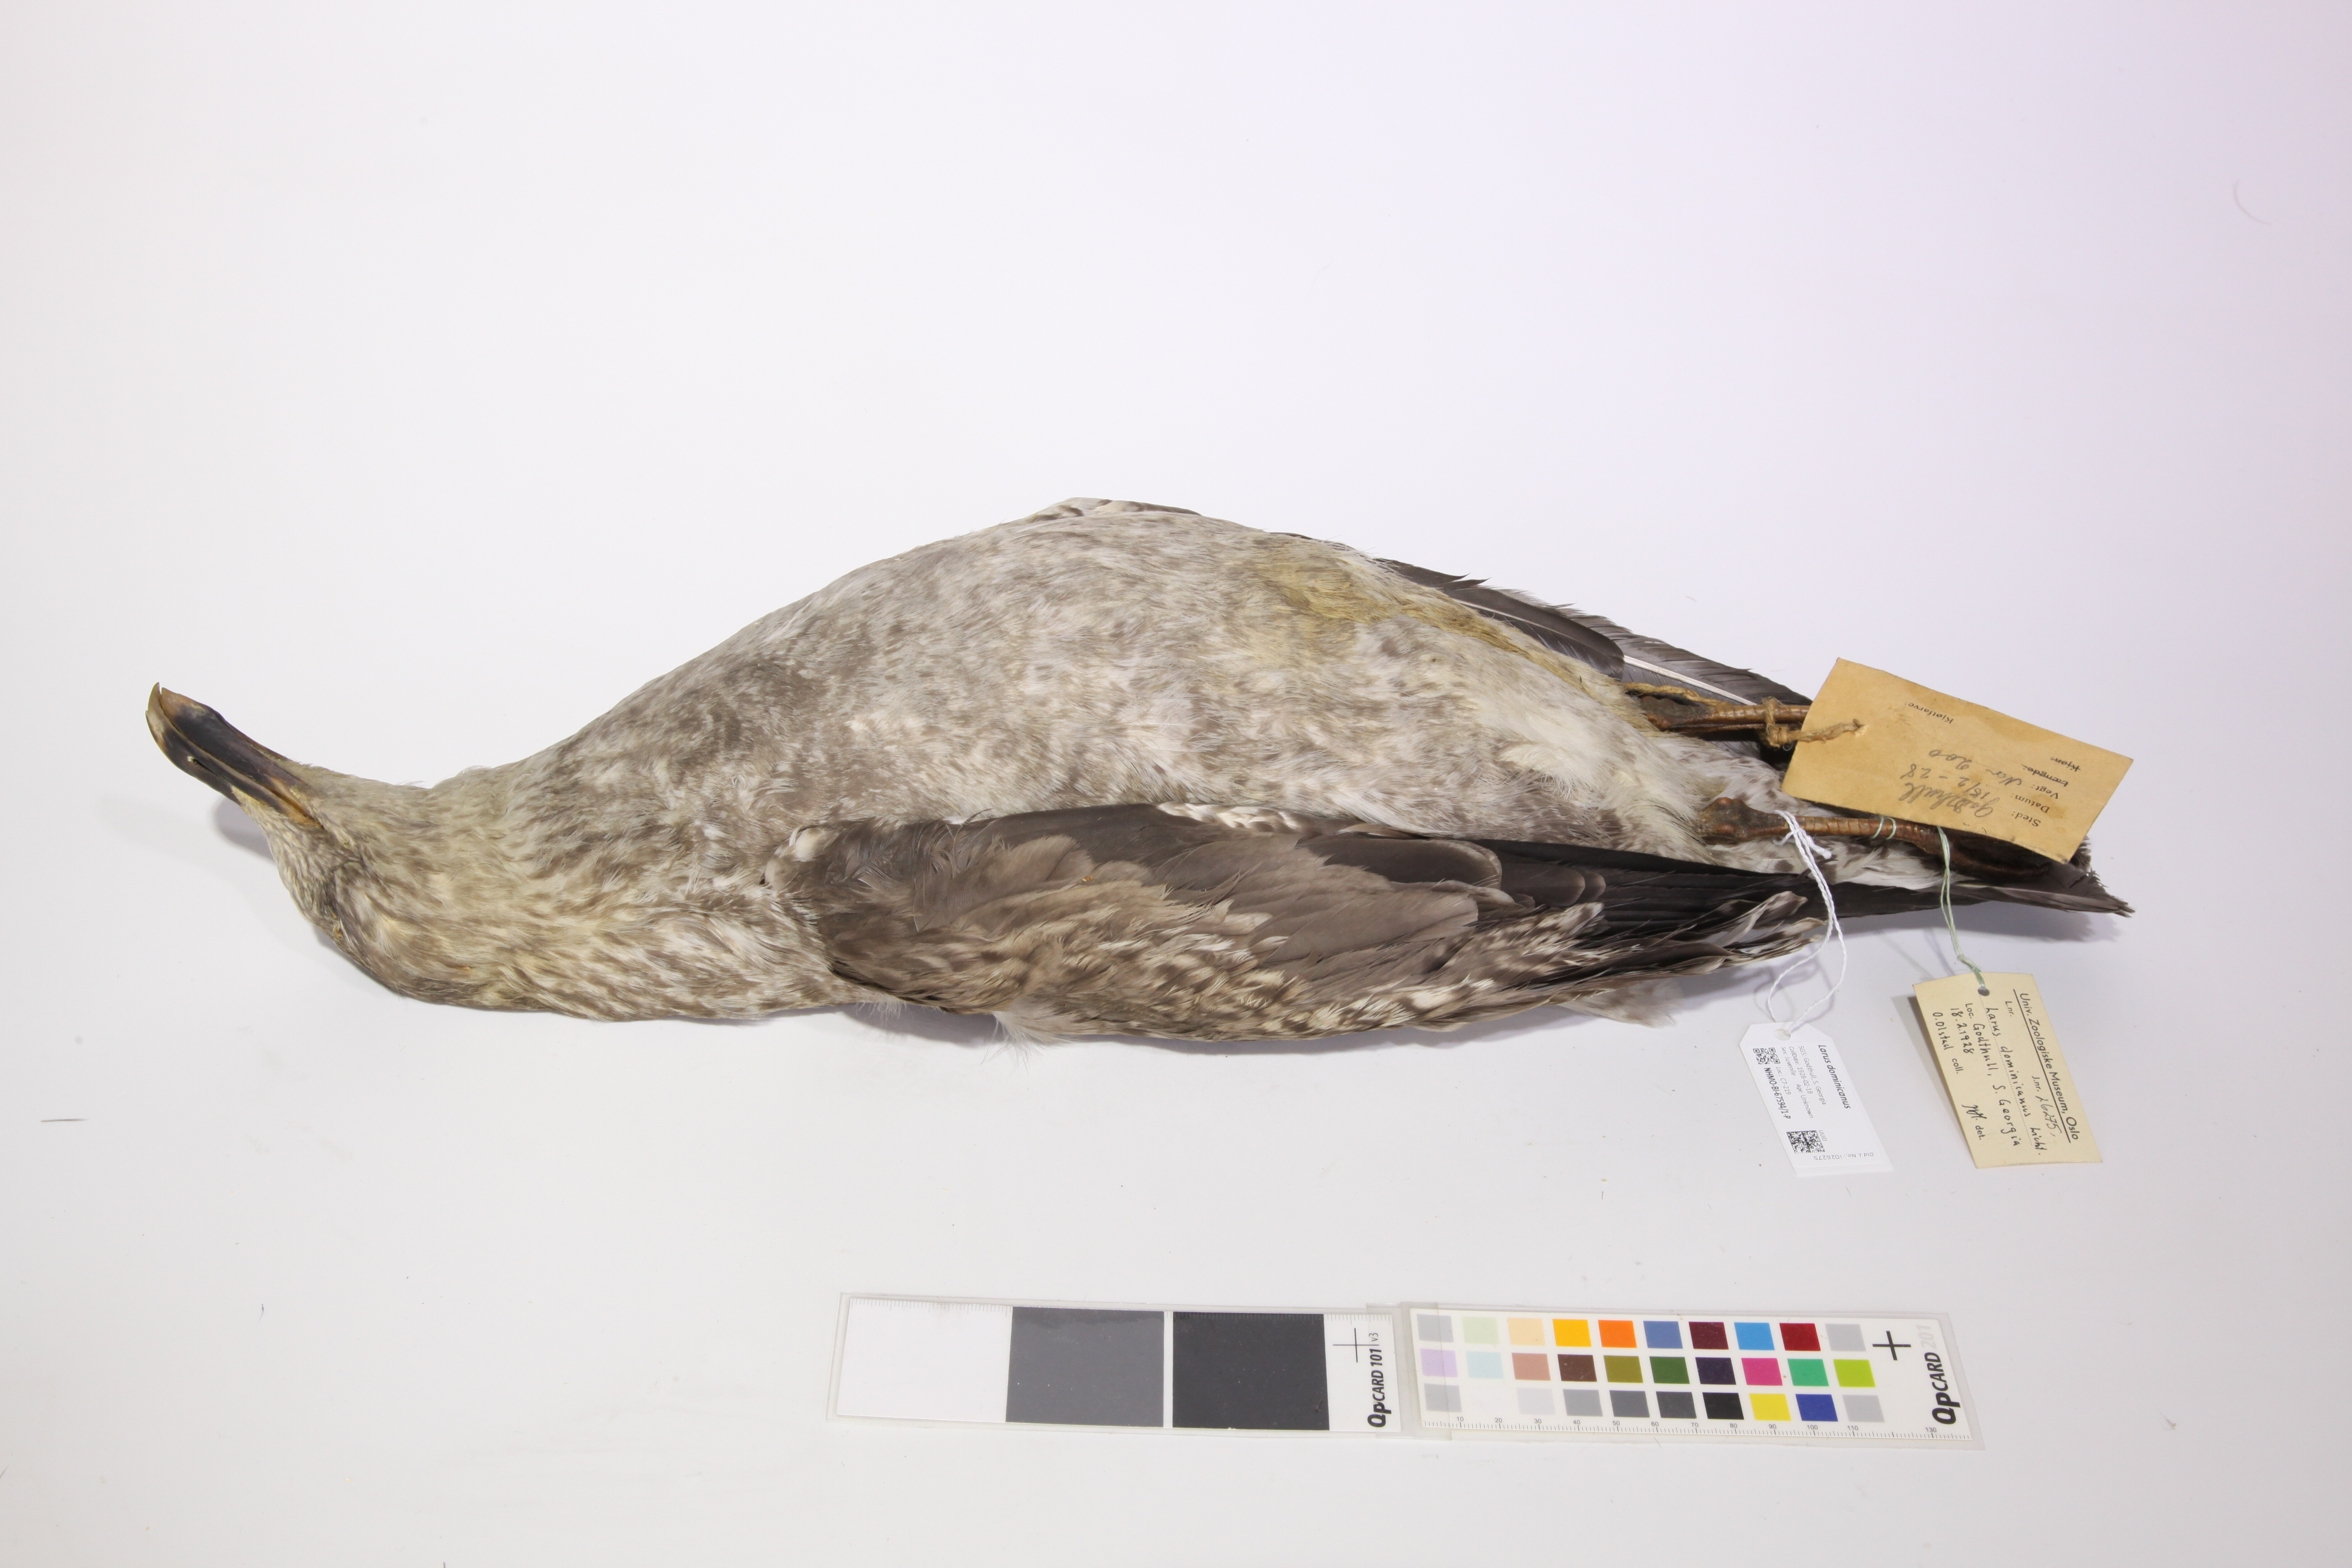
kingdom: Animalia
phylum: Chordata
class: Aves
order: Charadriiformes
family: Laridae
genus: Larus
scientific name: Larus dominicanus
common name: Kelp gull
